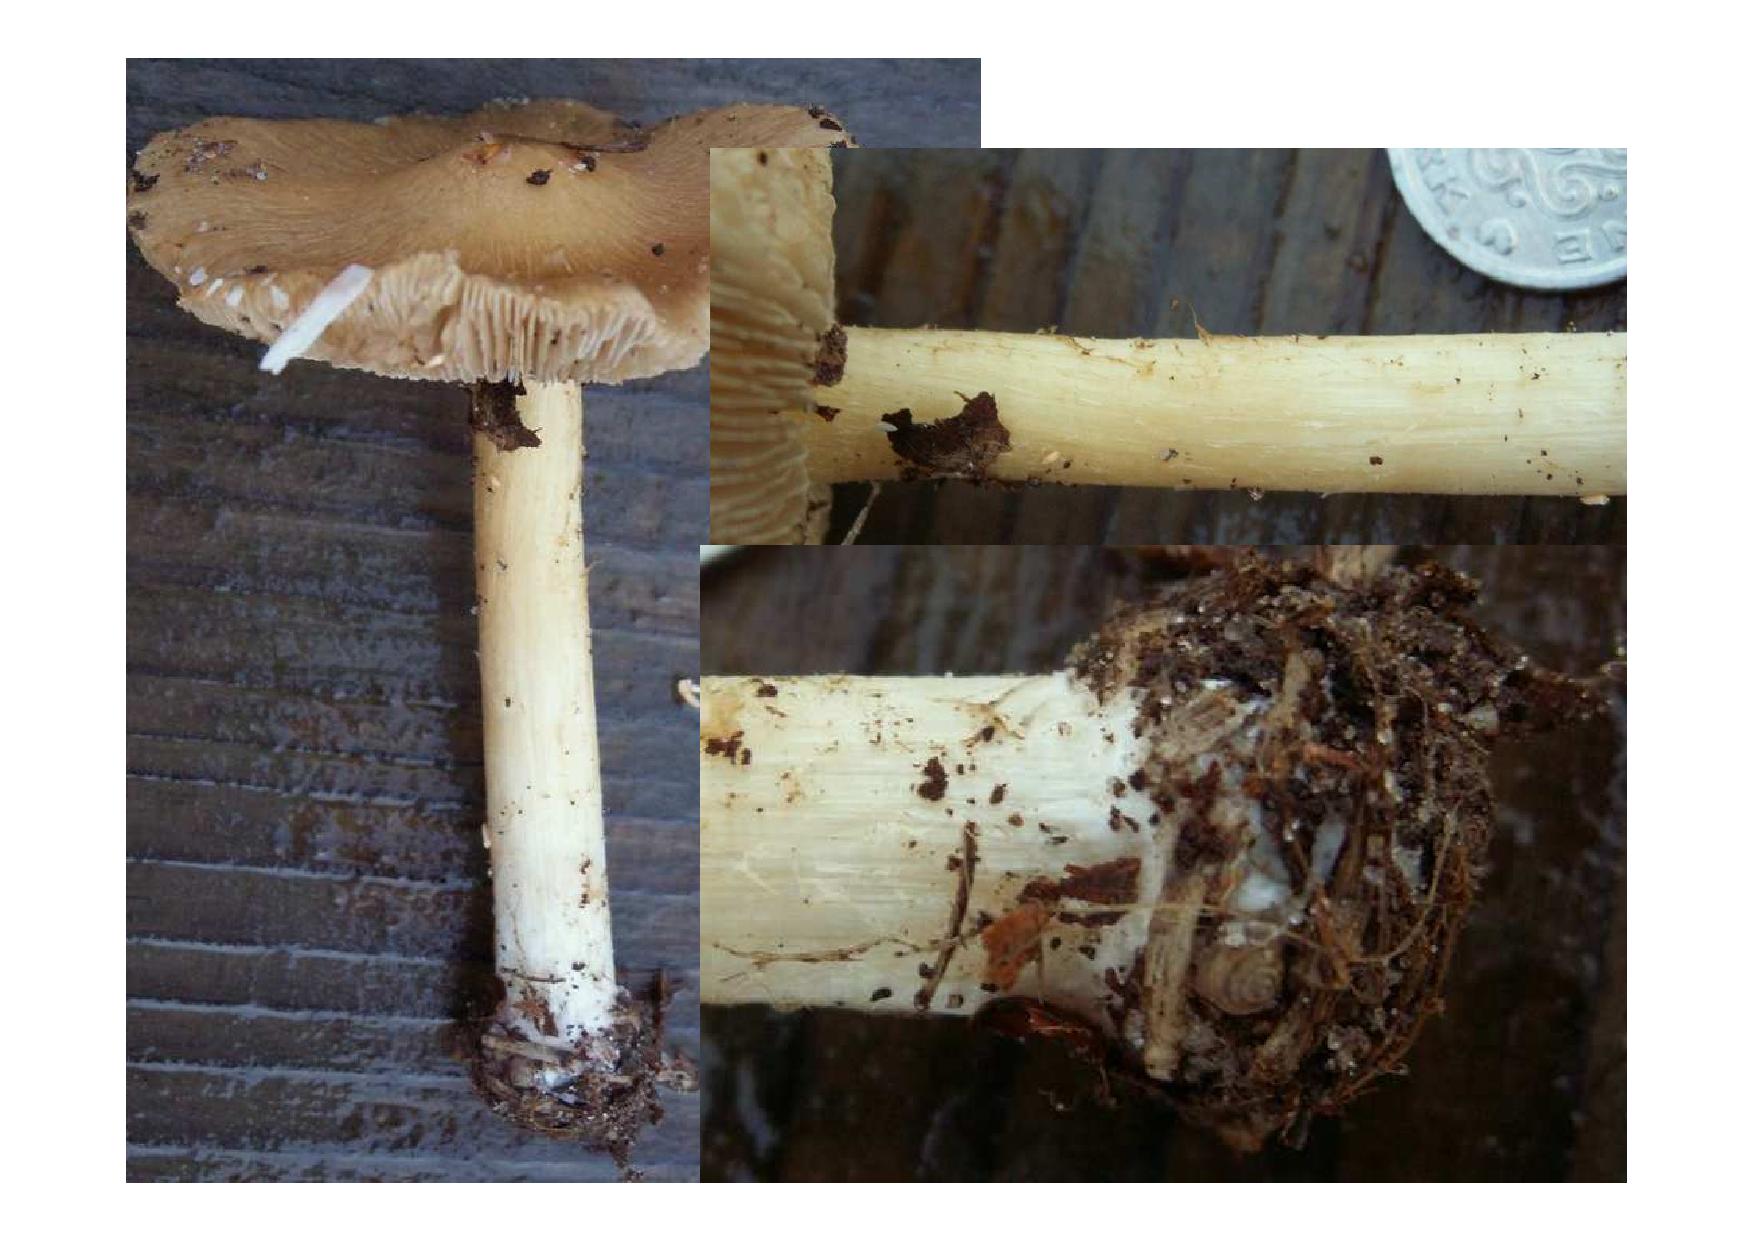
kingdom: Fungi
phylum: Basidiomycota
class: Agaricomycetes
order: Agaricales
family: Inocybaceae
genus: Inosperma
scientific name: Inosperma
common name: strågul trævlhat
